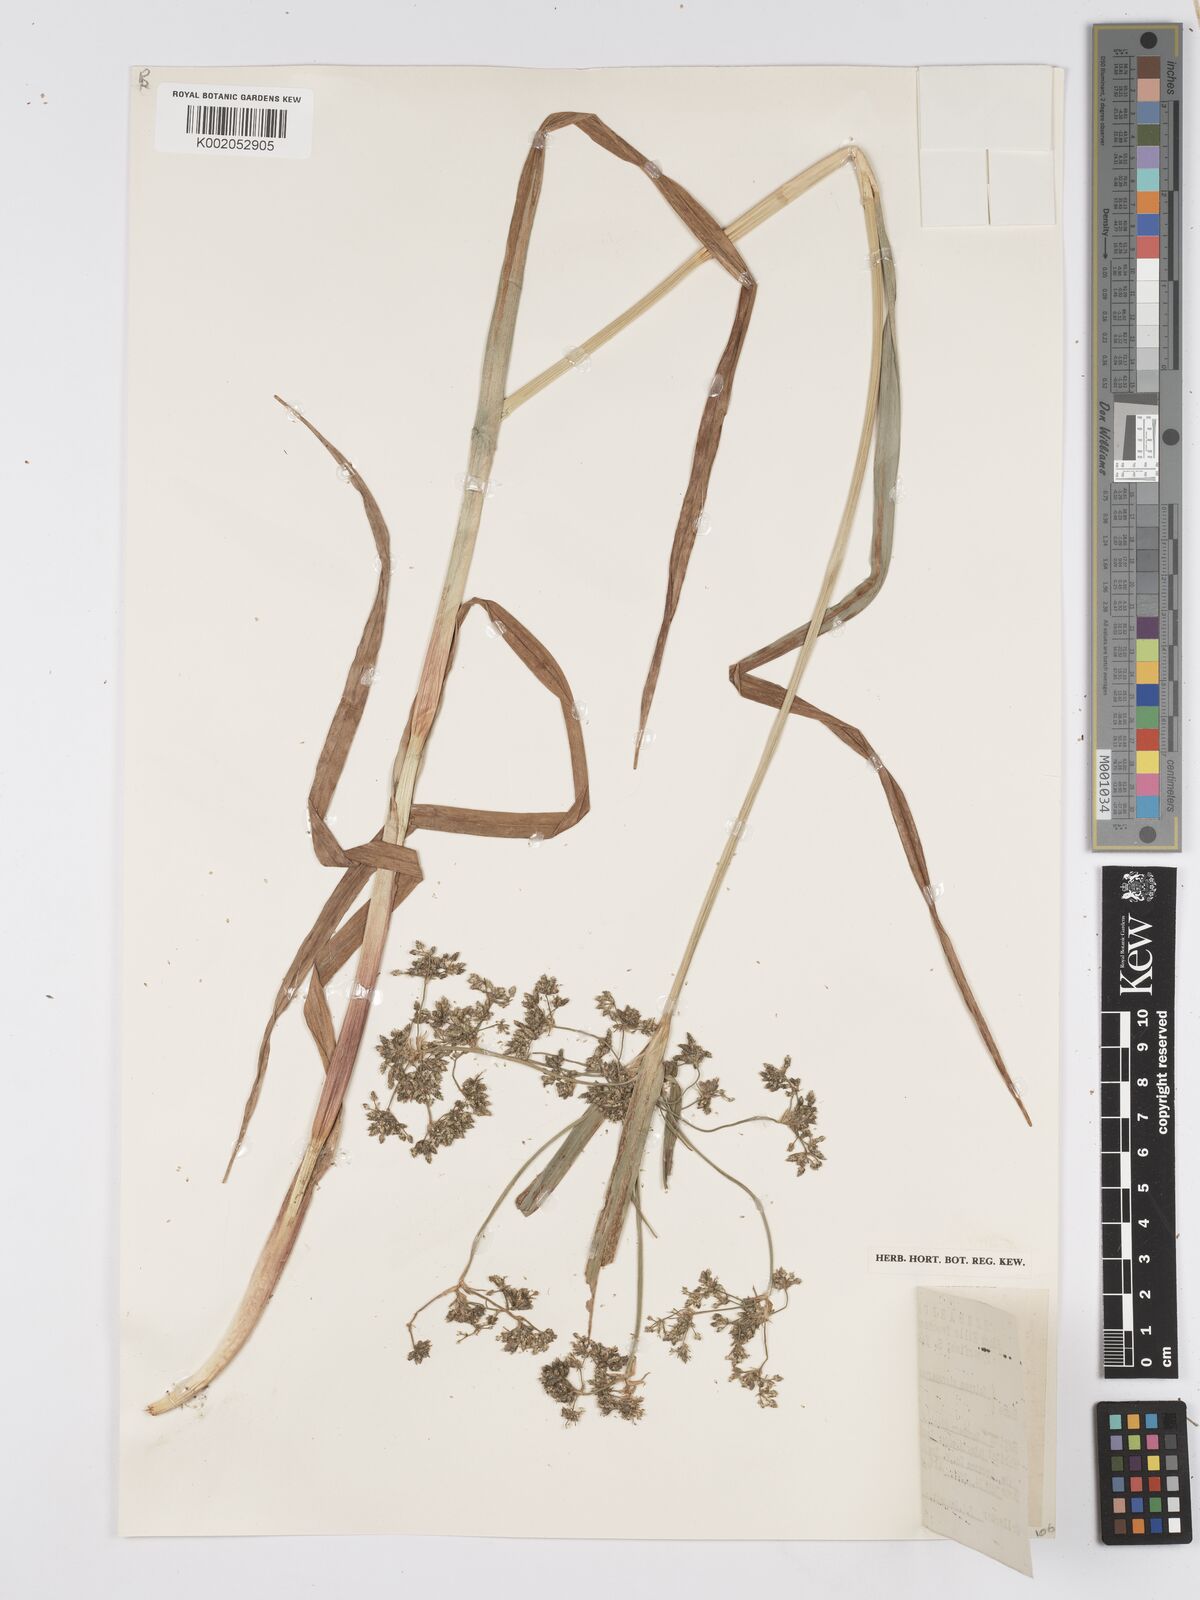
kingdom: Plantae
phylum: Tracheophyta
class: Liliopsida
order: Poales
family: Cyperaceae
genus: Scirpus
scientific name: Scirpus sylvaticus
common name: Wood club-rush
